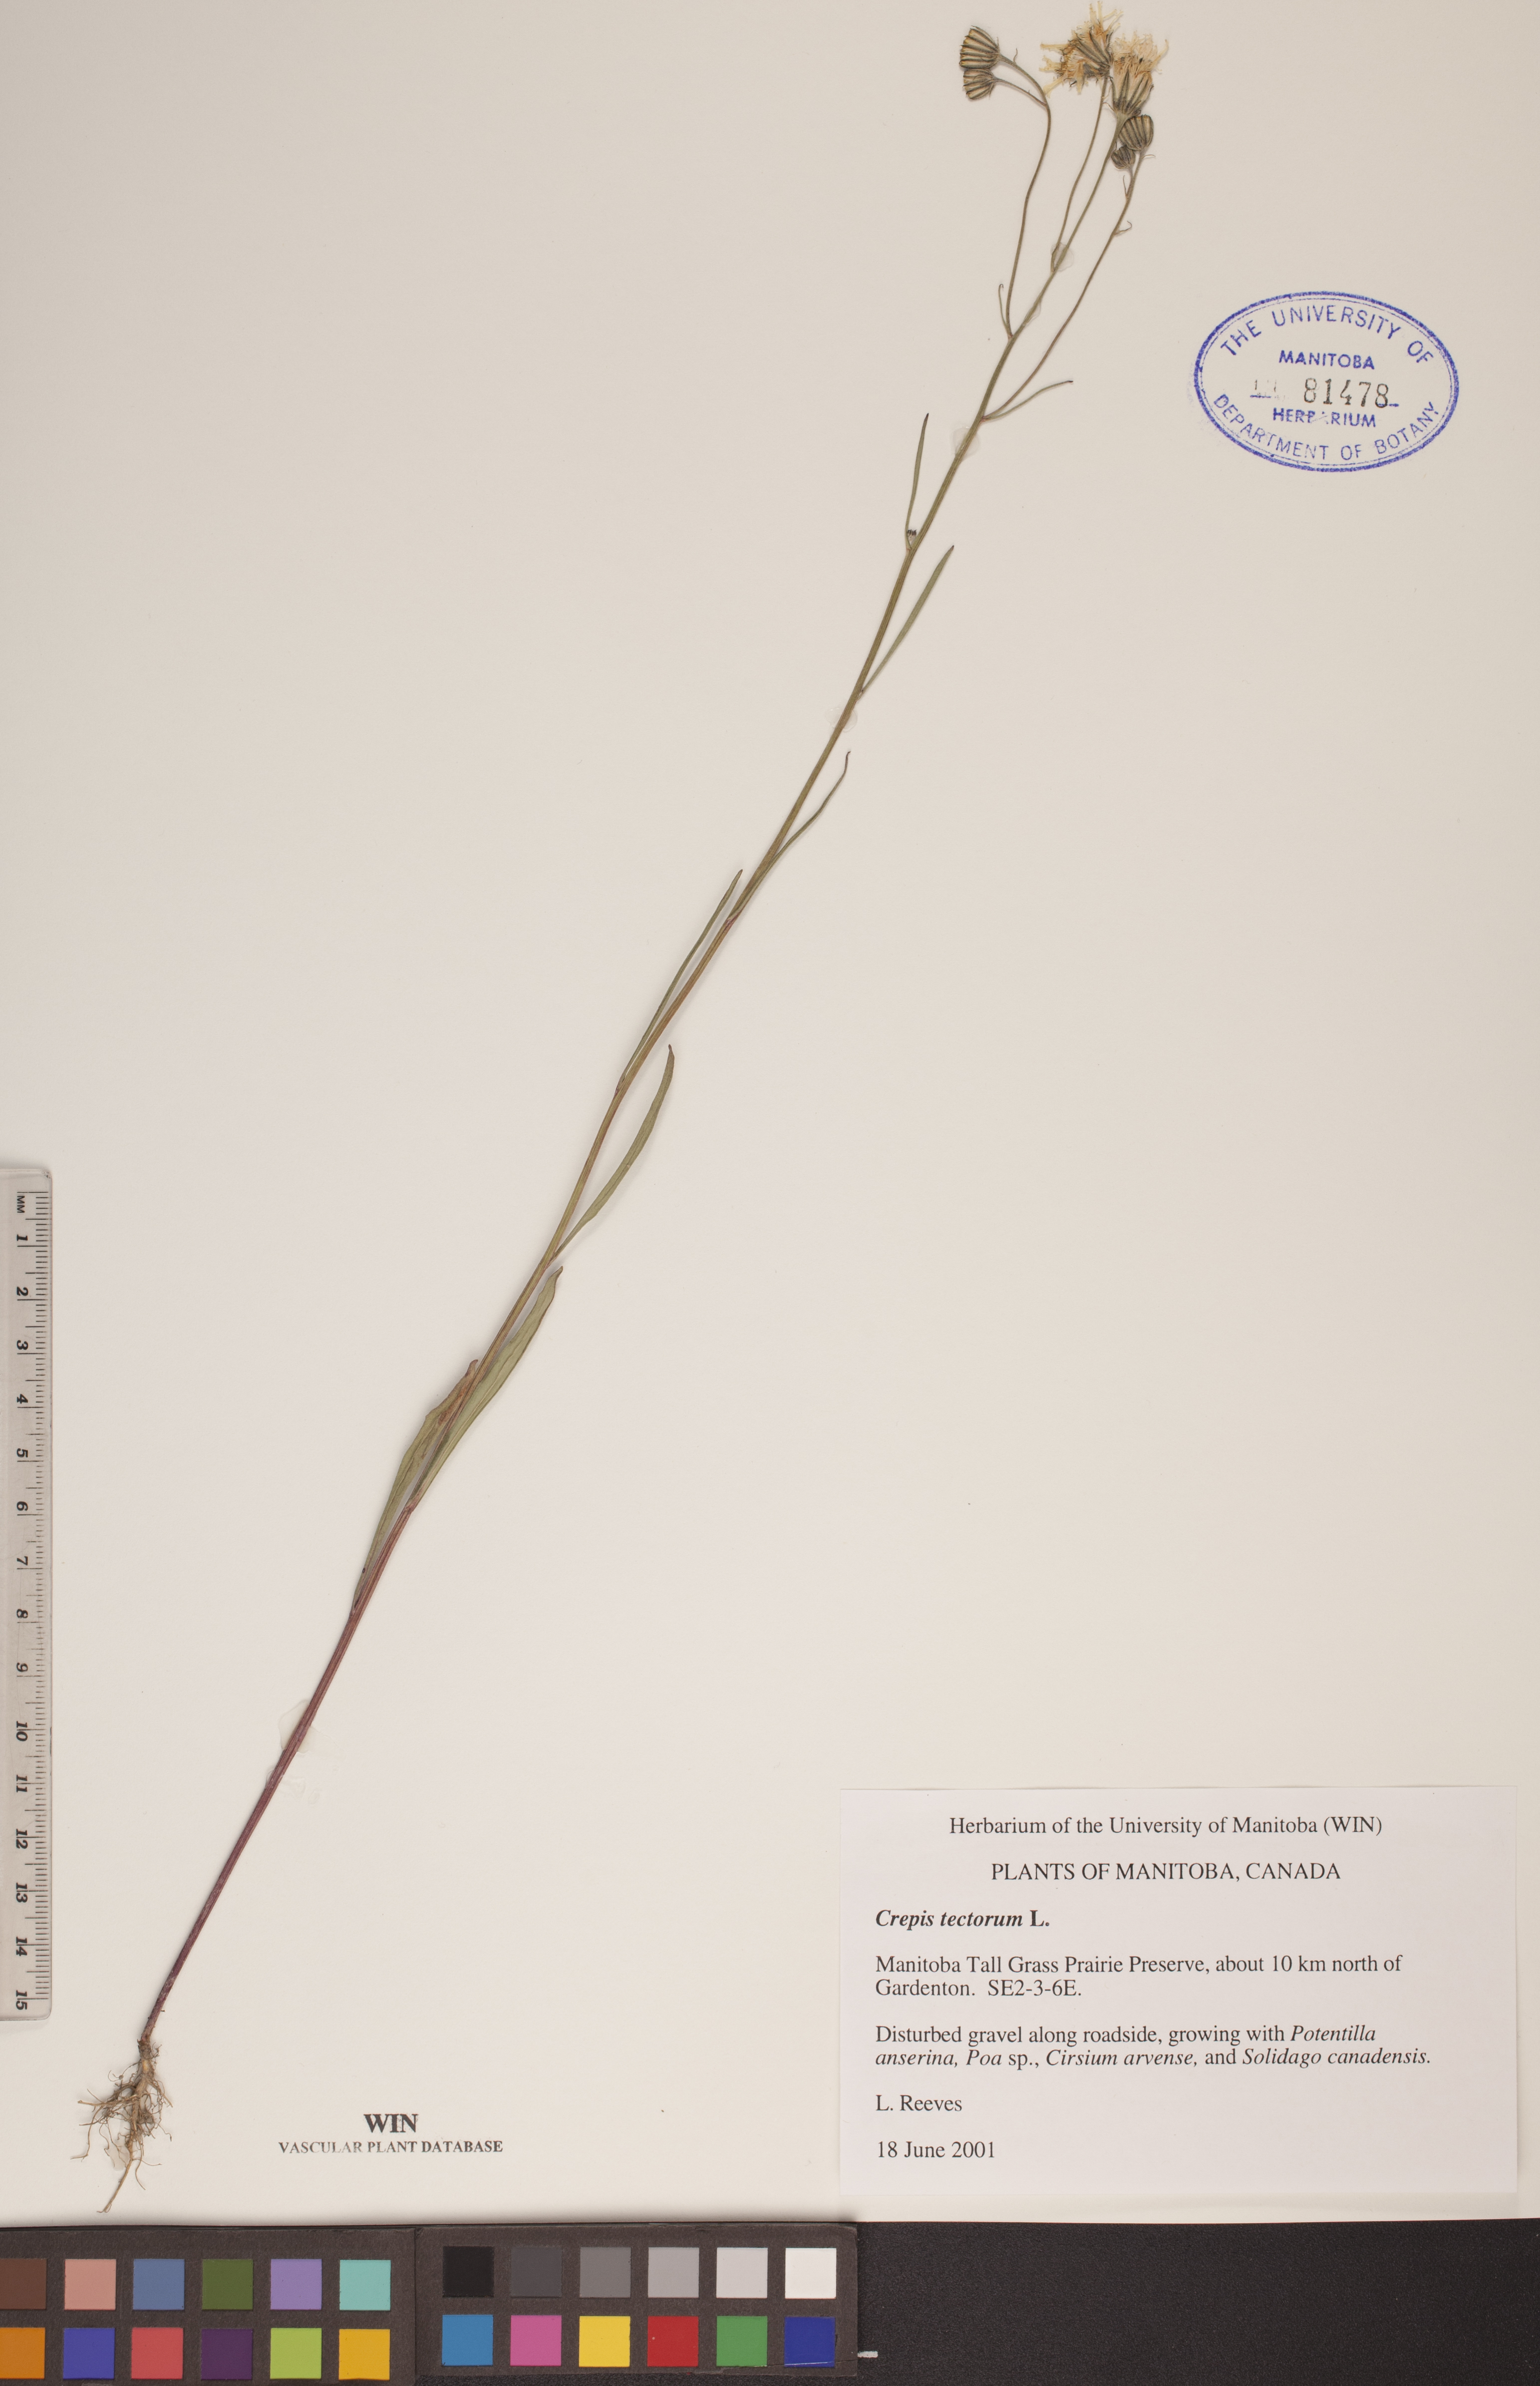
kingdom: Plantae
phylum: Tracheophyta
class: Magnoliopsida
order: Asterales
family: Asteraceae
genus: Crepis
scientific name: Crepis tectorum
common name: Narrow-leaved hawk's-beard
